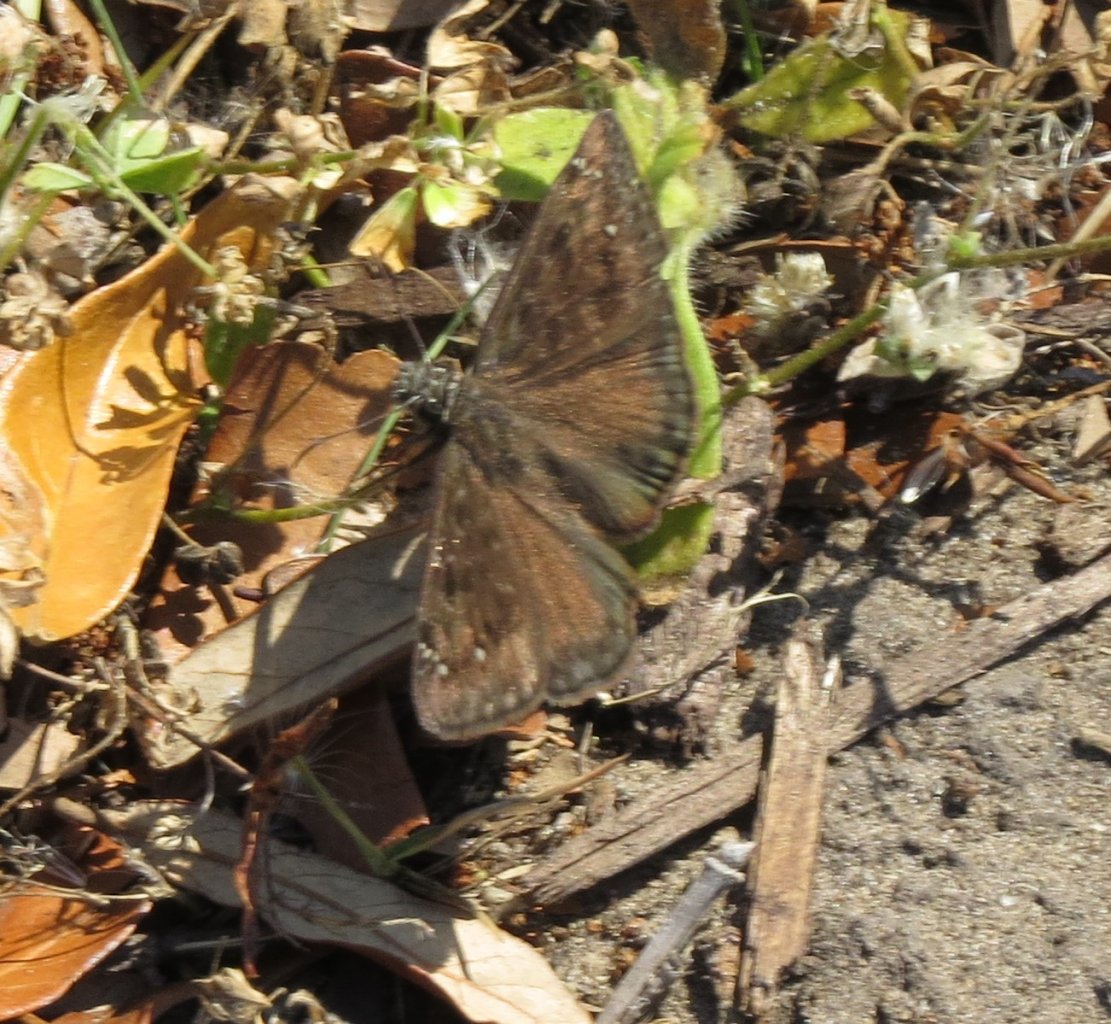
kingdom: Animalia
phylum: Arthropoda
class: Insecta
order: Lepidoptera
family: Hesperiidae
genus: Gesta
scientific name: Gesta
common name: Horace's Duskywing
